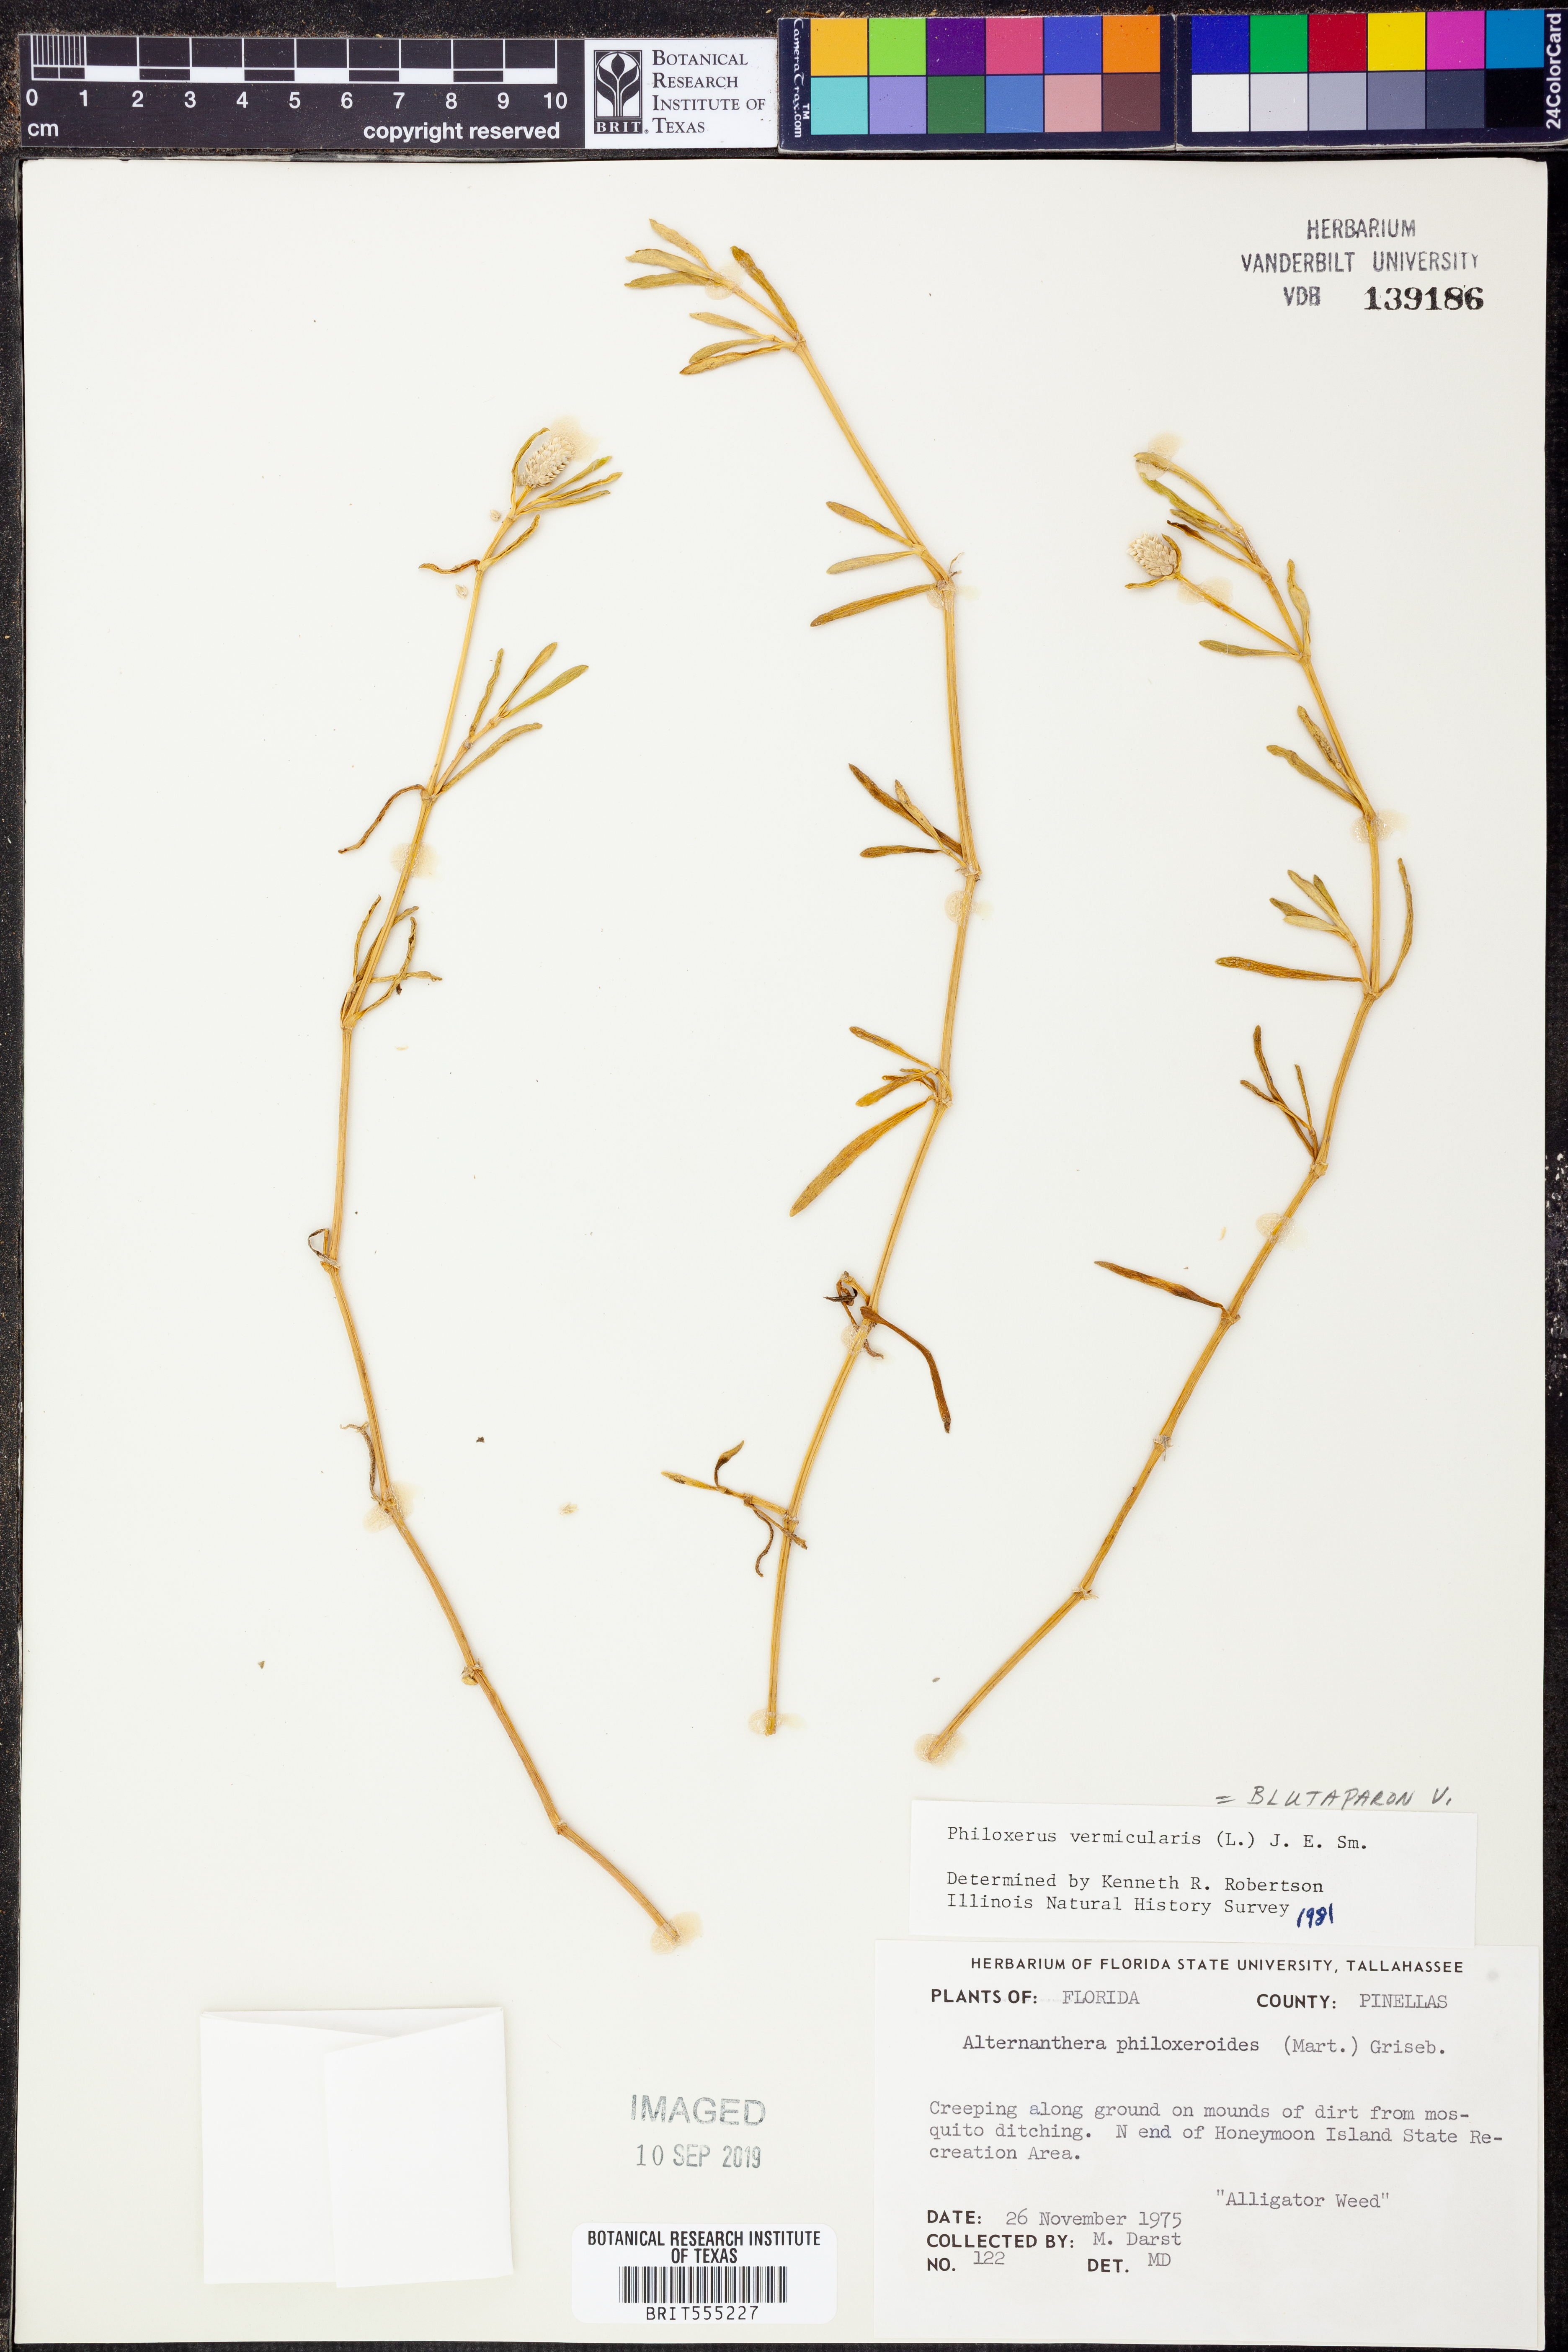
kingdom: Plantae
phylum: Tracheophyta
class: Magnoliopsida
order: Caryophyllales
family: Amaranthaceae
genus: Gomphrena
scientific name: Gomphrena
